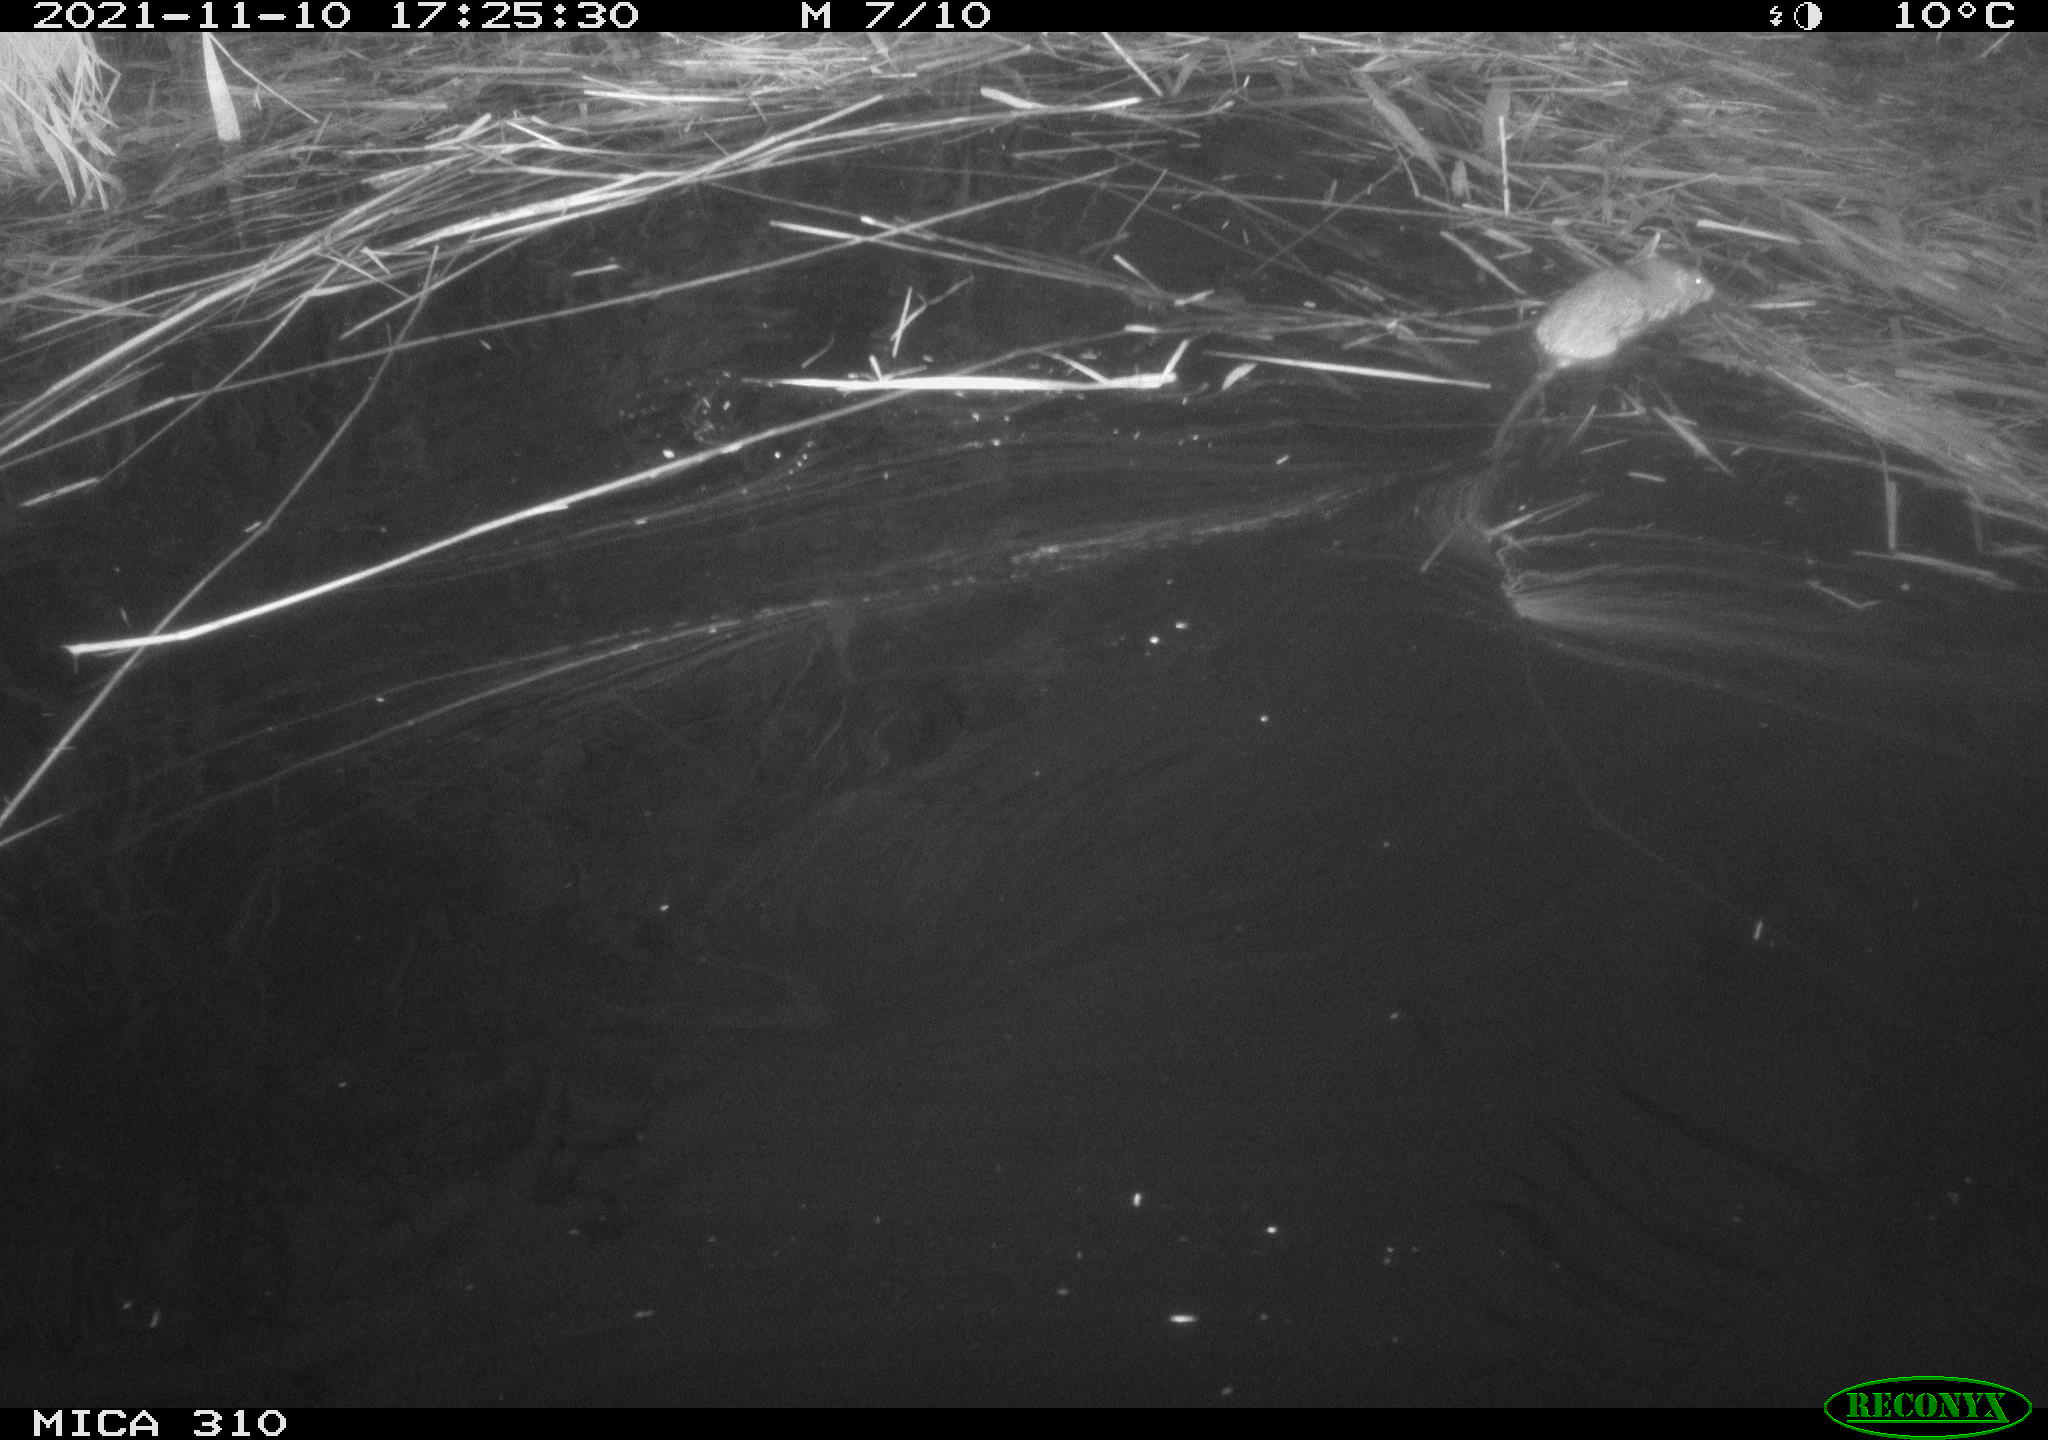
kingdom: Animalia
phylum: Chordata
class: Mammalia
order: Rodentia
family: Muridae
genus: Rattus
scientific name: Rattus norvegicus
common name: Brown rat
